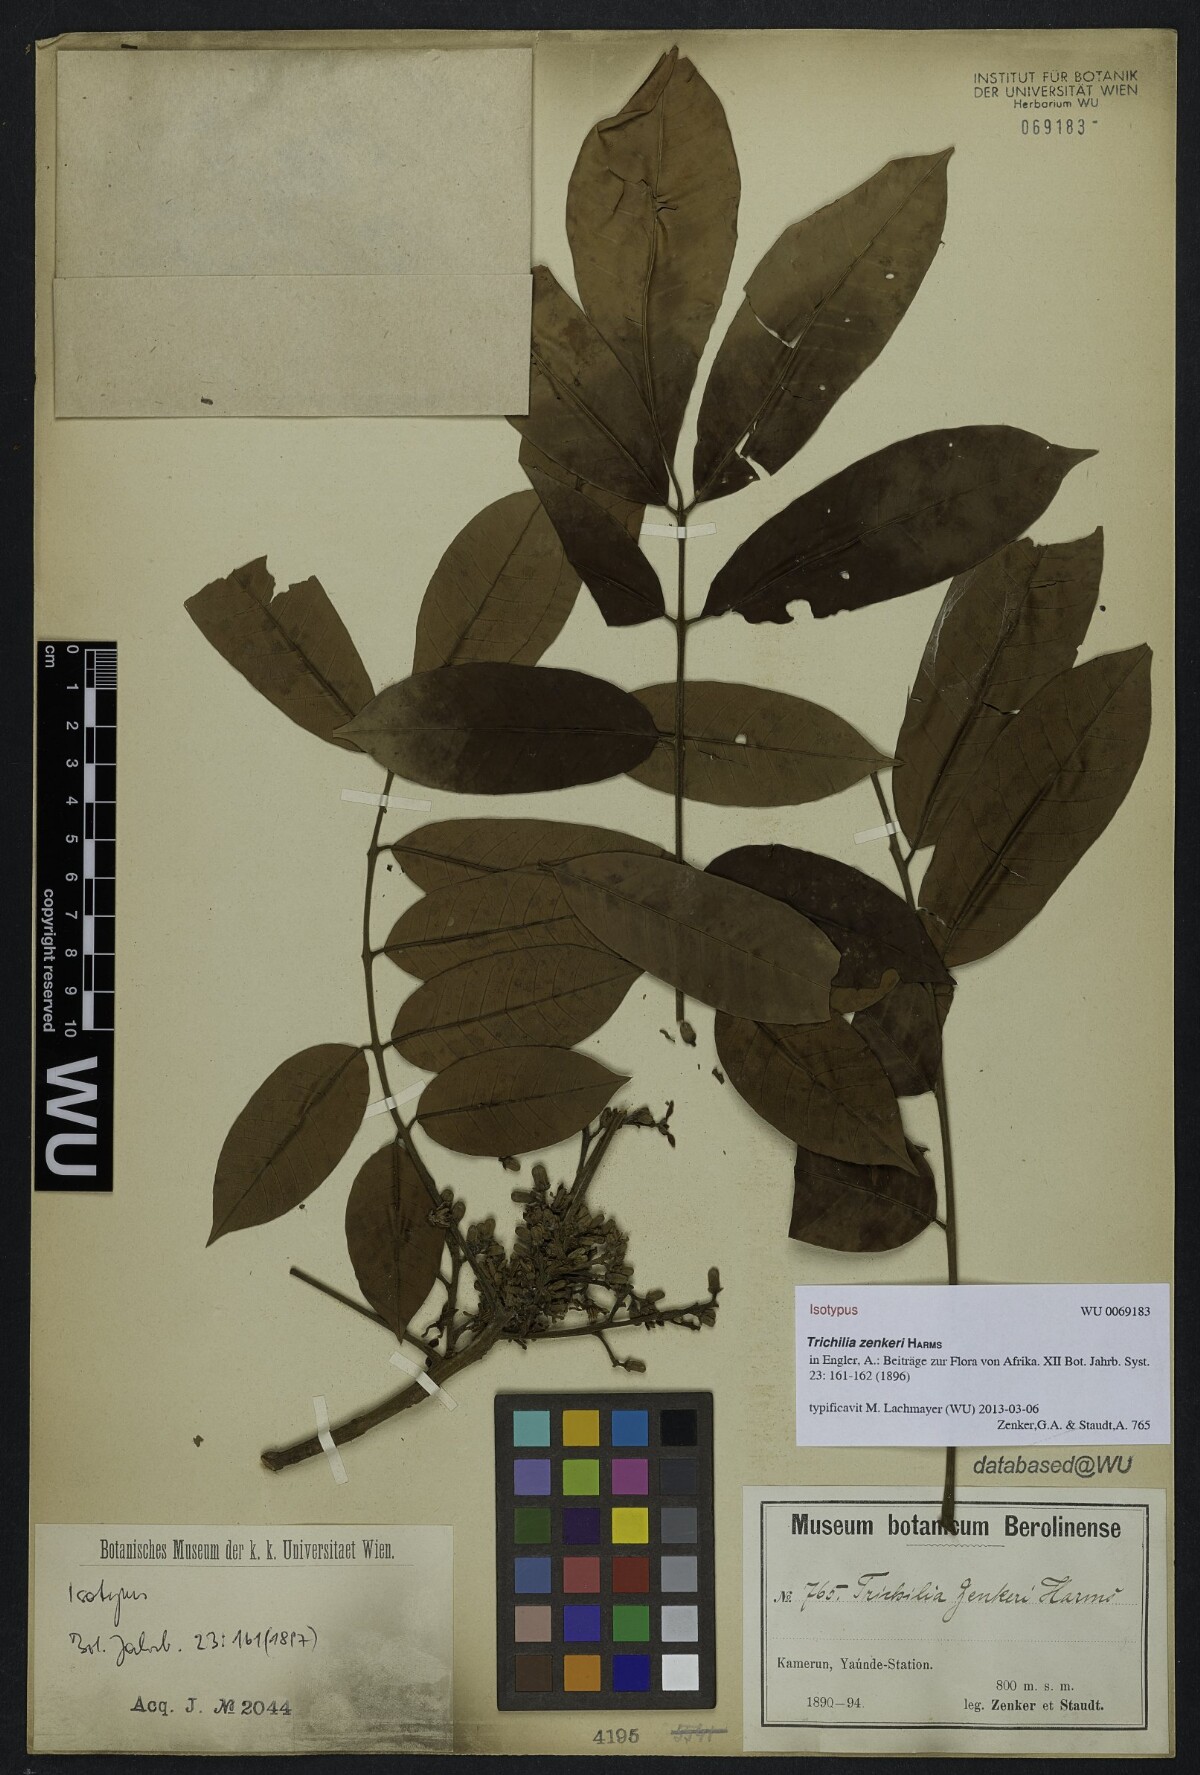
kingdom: Plantae
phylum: Tracheophyta
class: Magnoliopsida
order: Sapindales
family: Meliaceae
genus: Trichilia
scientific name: Trichilia welwitschii
